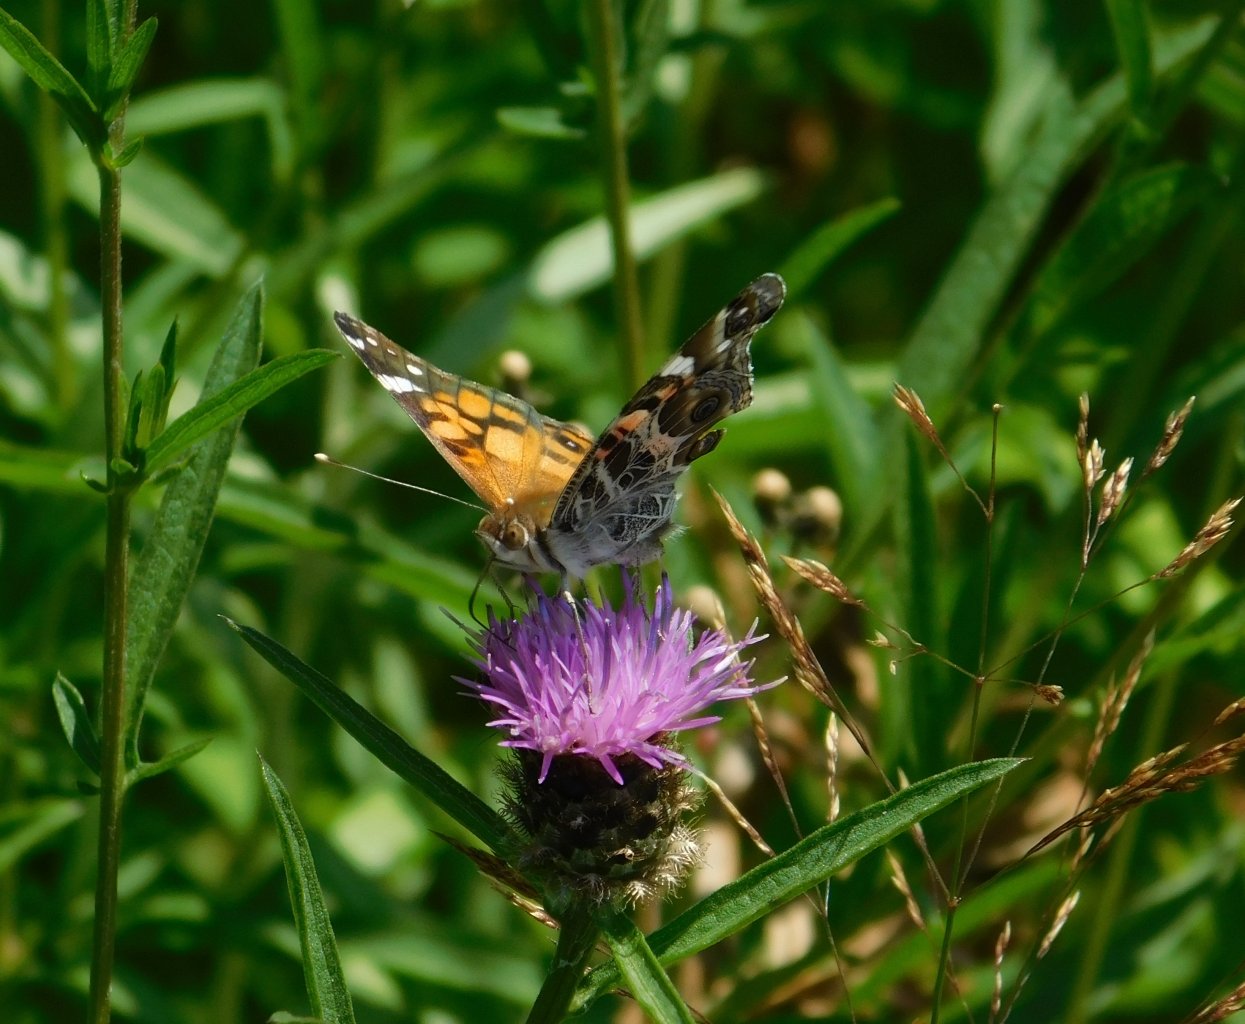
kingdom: Animalia
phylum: Arthropoda
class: Insecta
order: Lepidoptera
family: Nymphalidae
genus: Vanessa
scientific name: Vanessa virginiensis
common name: American Lady
